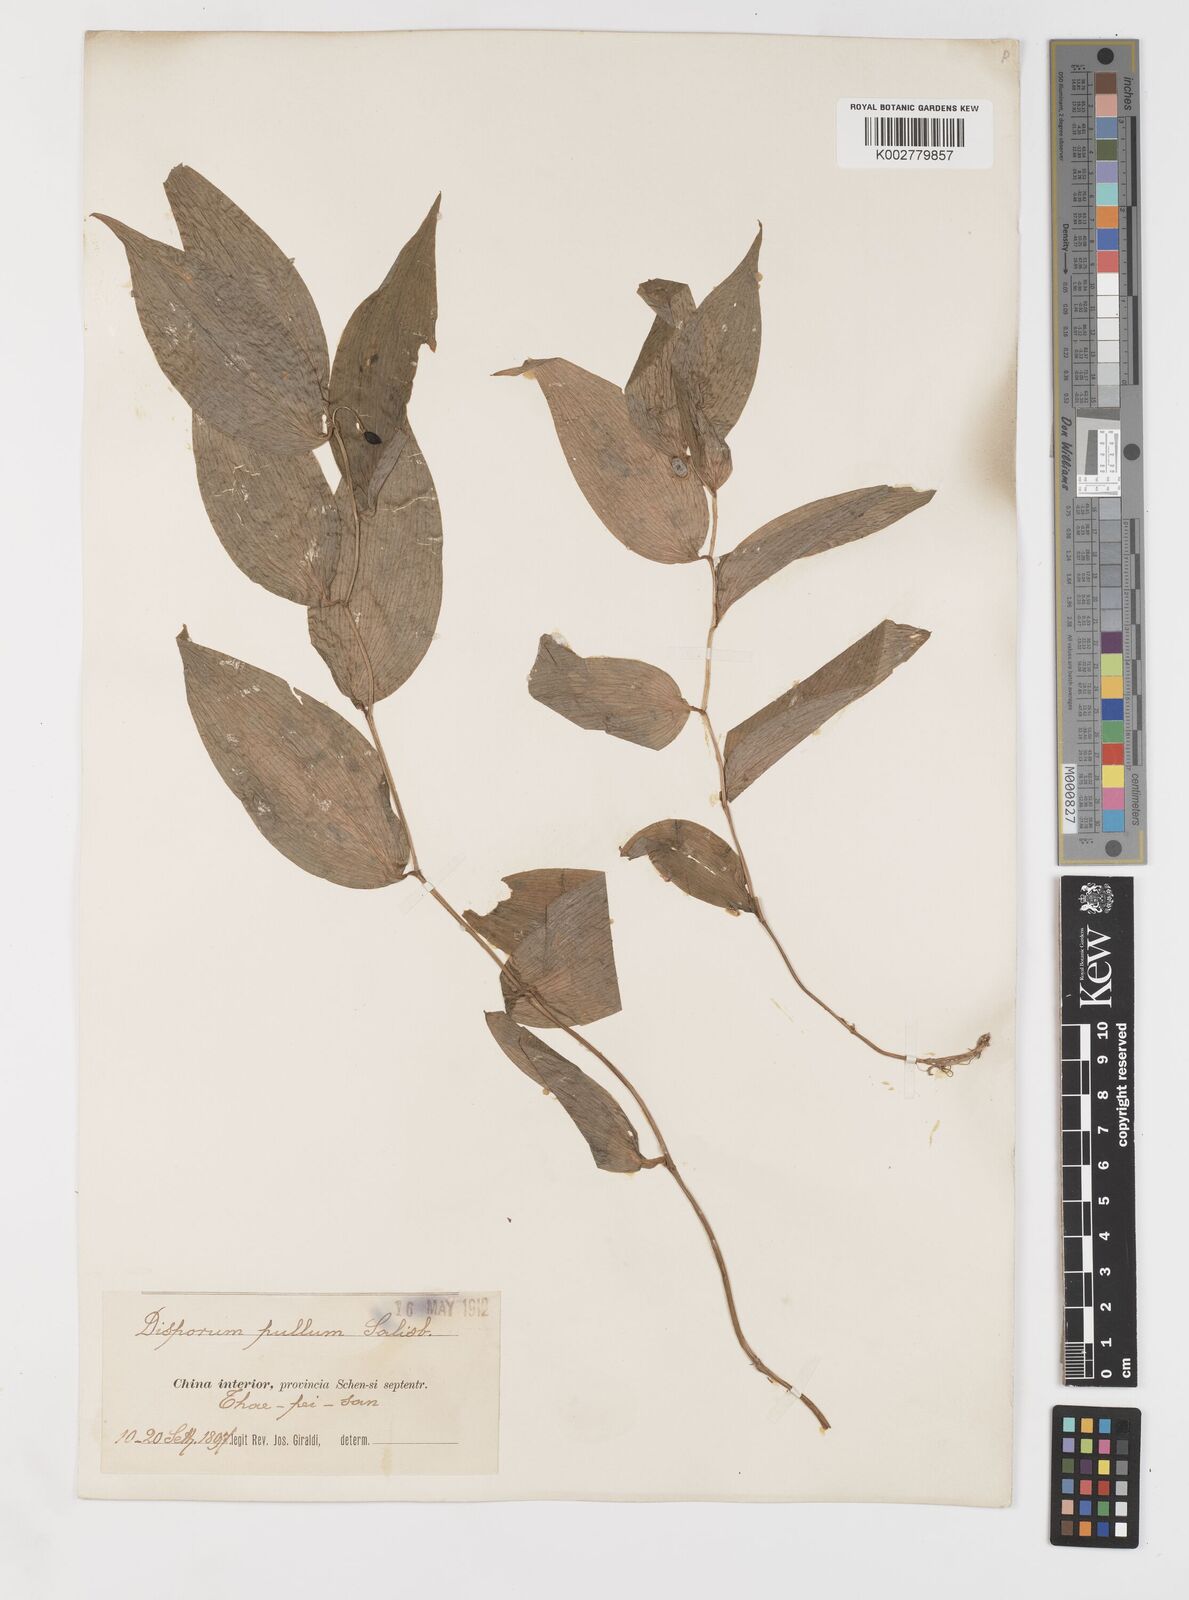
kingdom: Plantae
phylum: Tracheophyta
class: Liliopsida
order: Liliales
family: Colchicaceae
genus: Disporum
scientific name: Disporum
